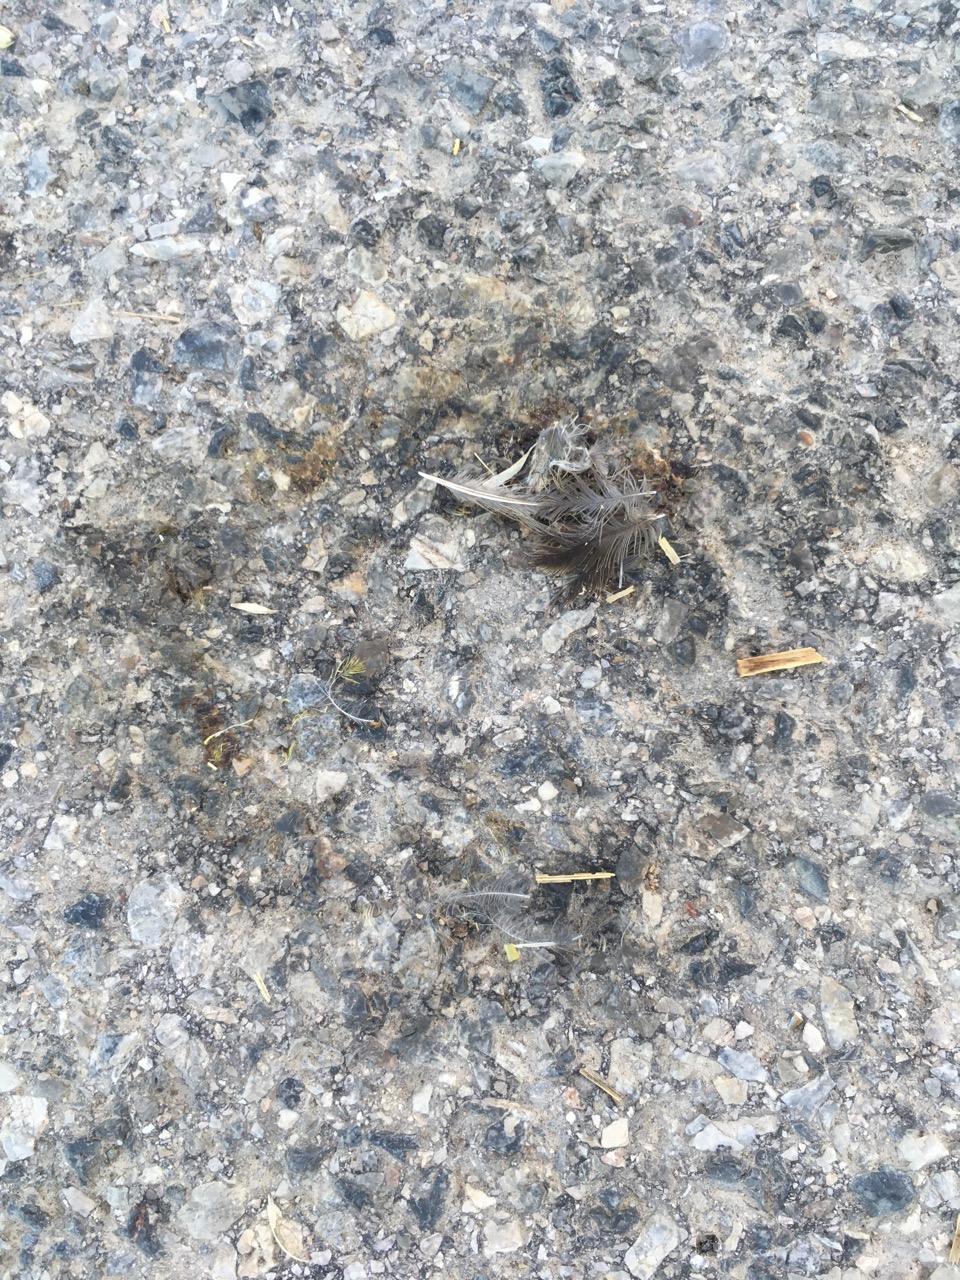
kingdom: Animalia
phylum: Chordata
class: Aves
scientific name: Aves
